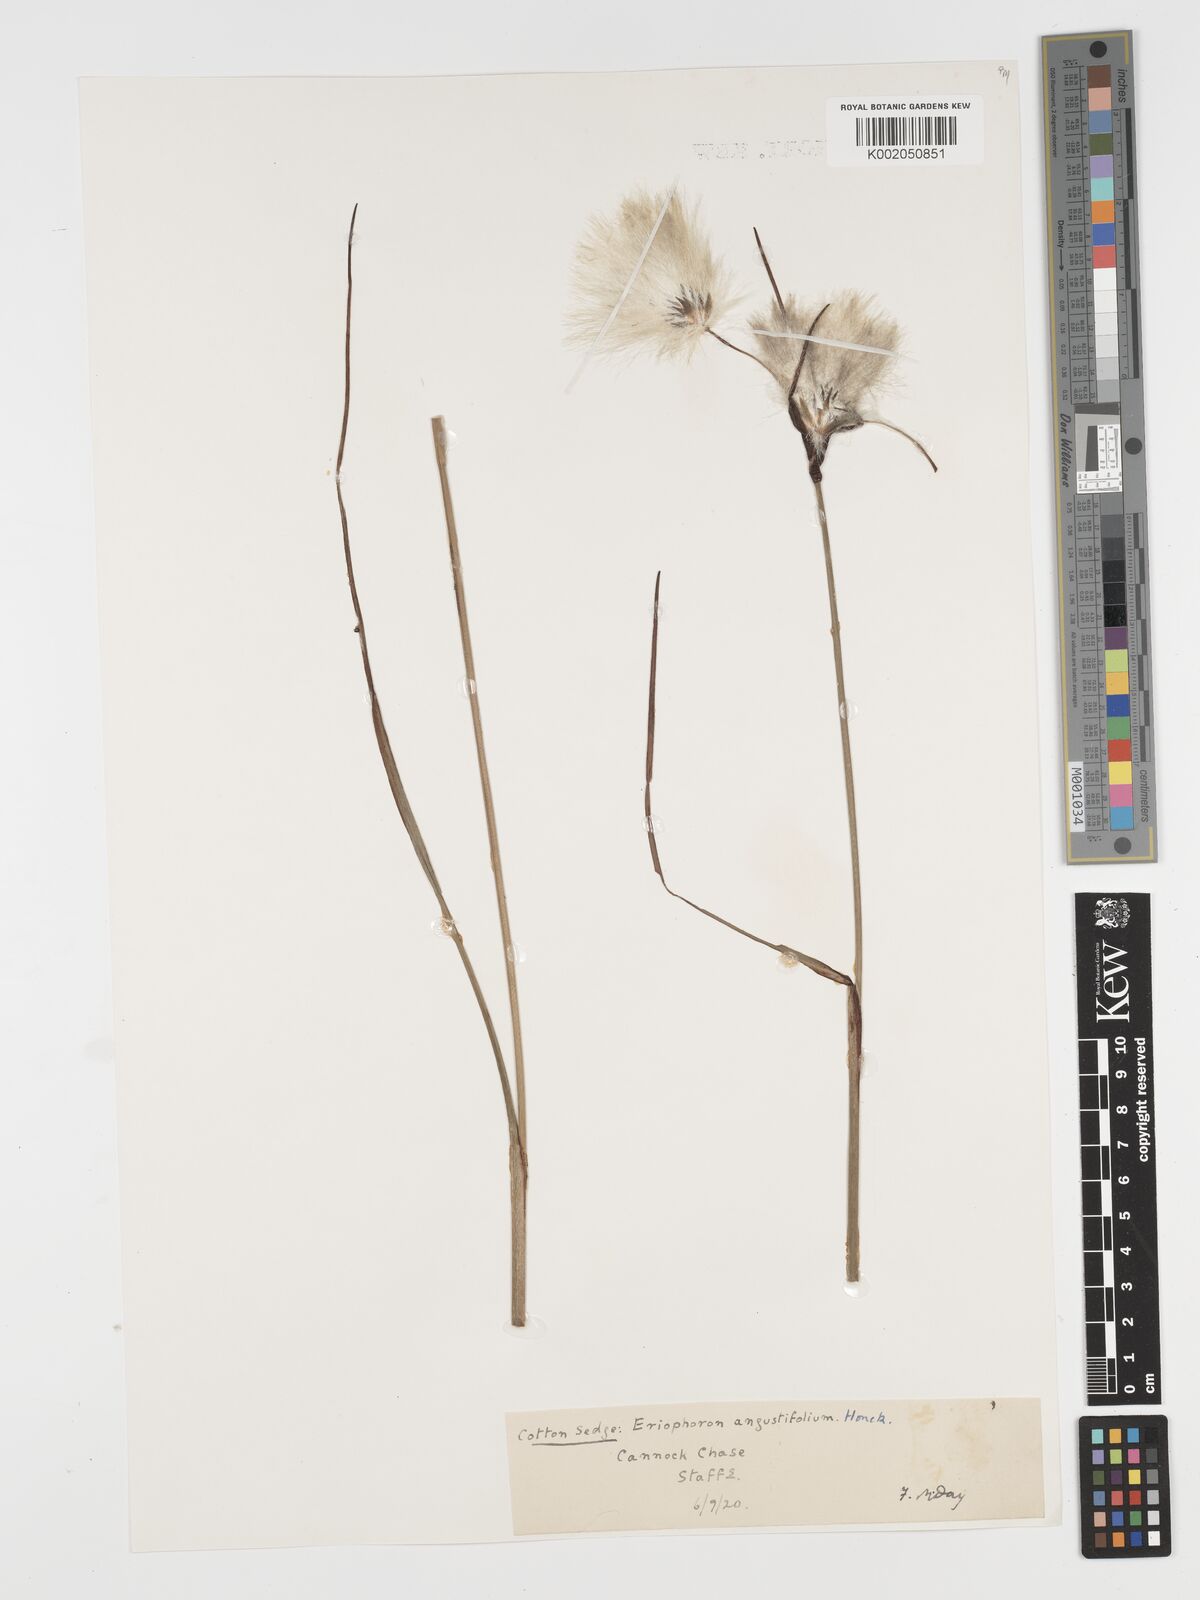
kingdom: Plantae
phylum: Tracheophyta
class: Liliopsida
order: Poales
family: Cyperaceae
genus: Eriophorum
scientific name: Eriophorum angustifolium
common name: Common cottongrass
